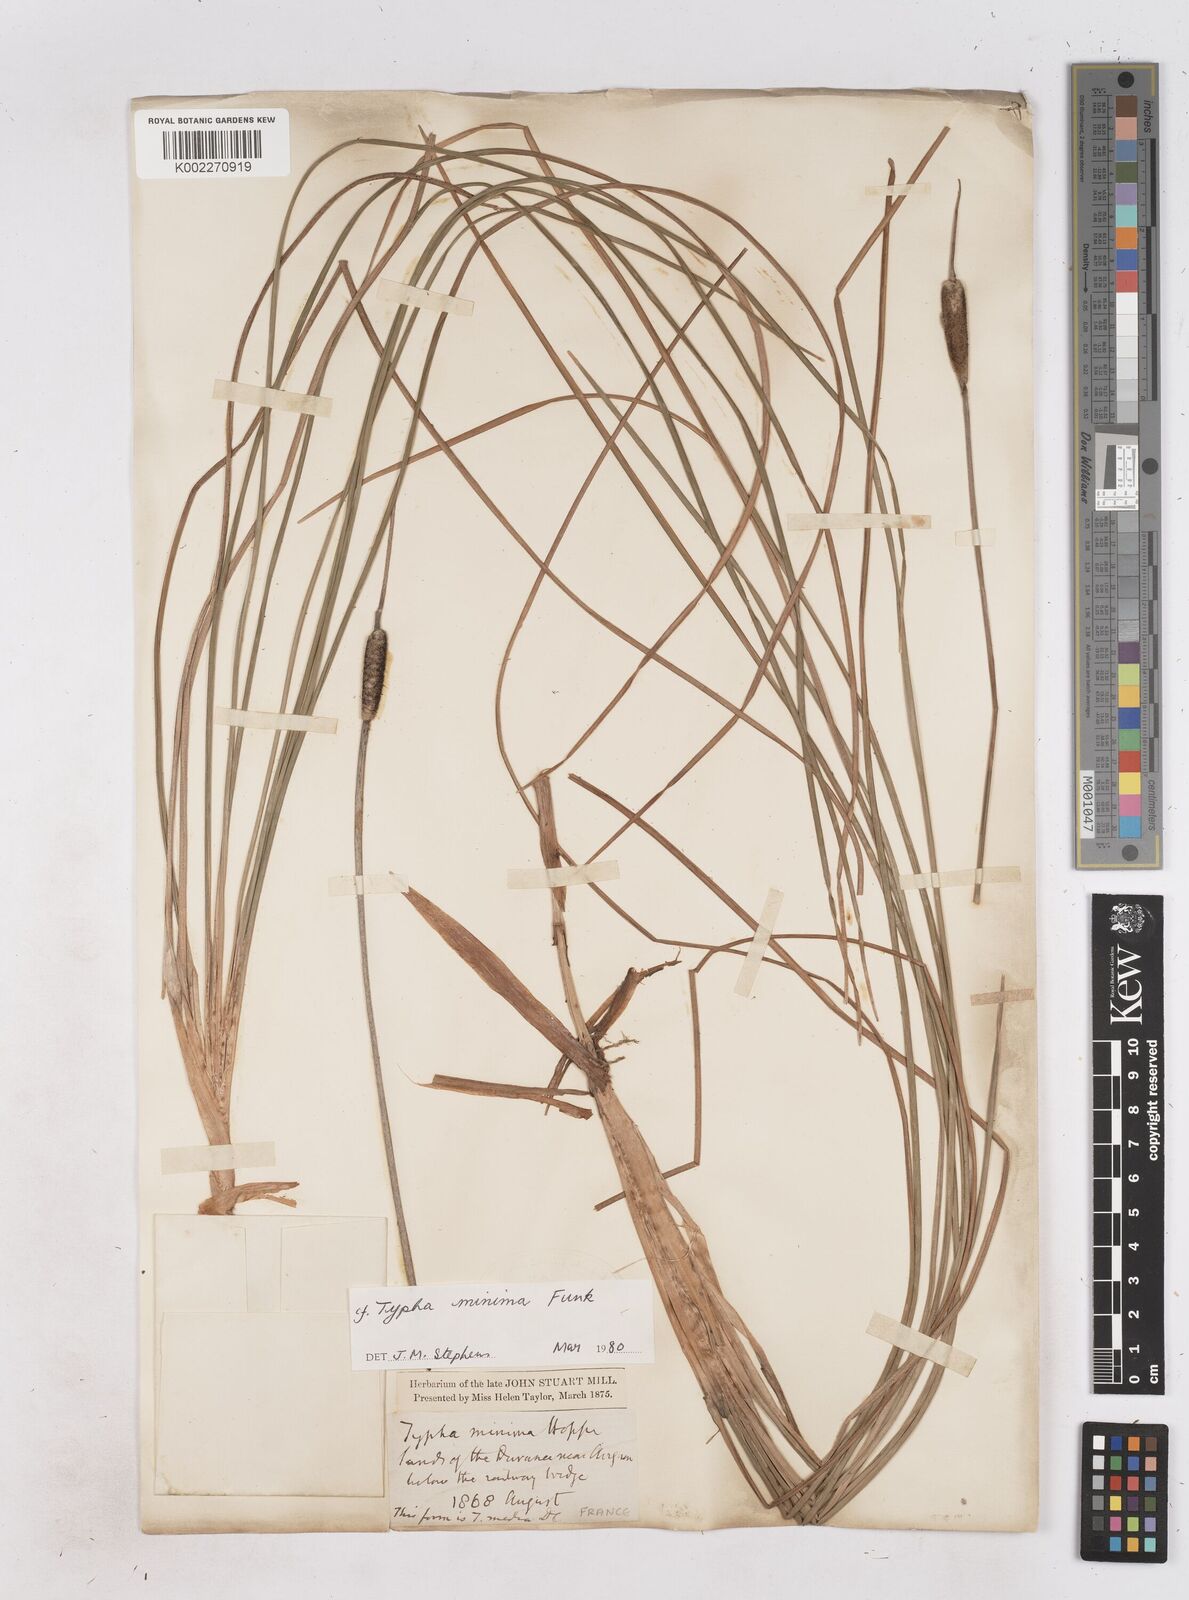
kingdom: Plantae
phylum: Tracheophyta
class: Liliopsida
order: Poales
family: Typhaceae
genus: Typha
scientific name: Typha
